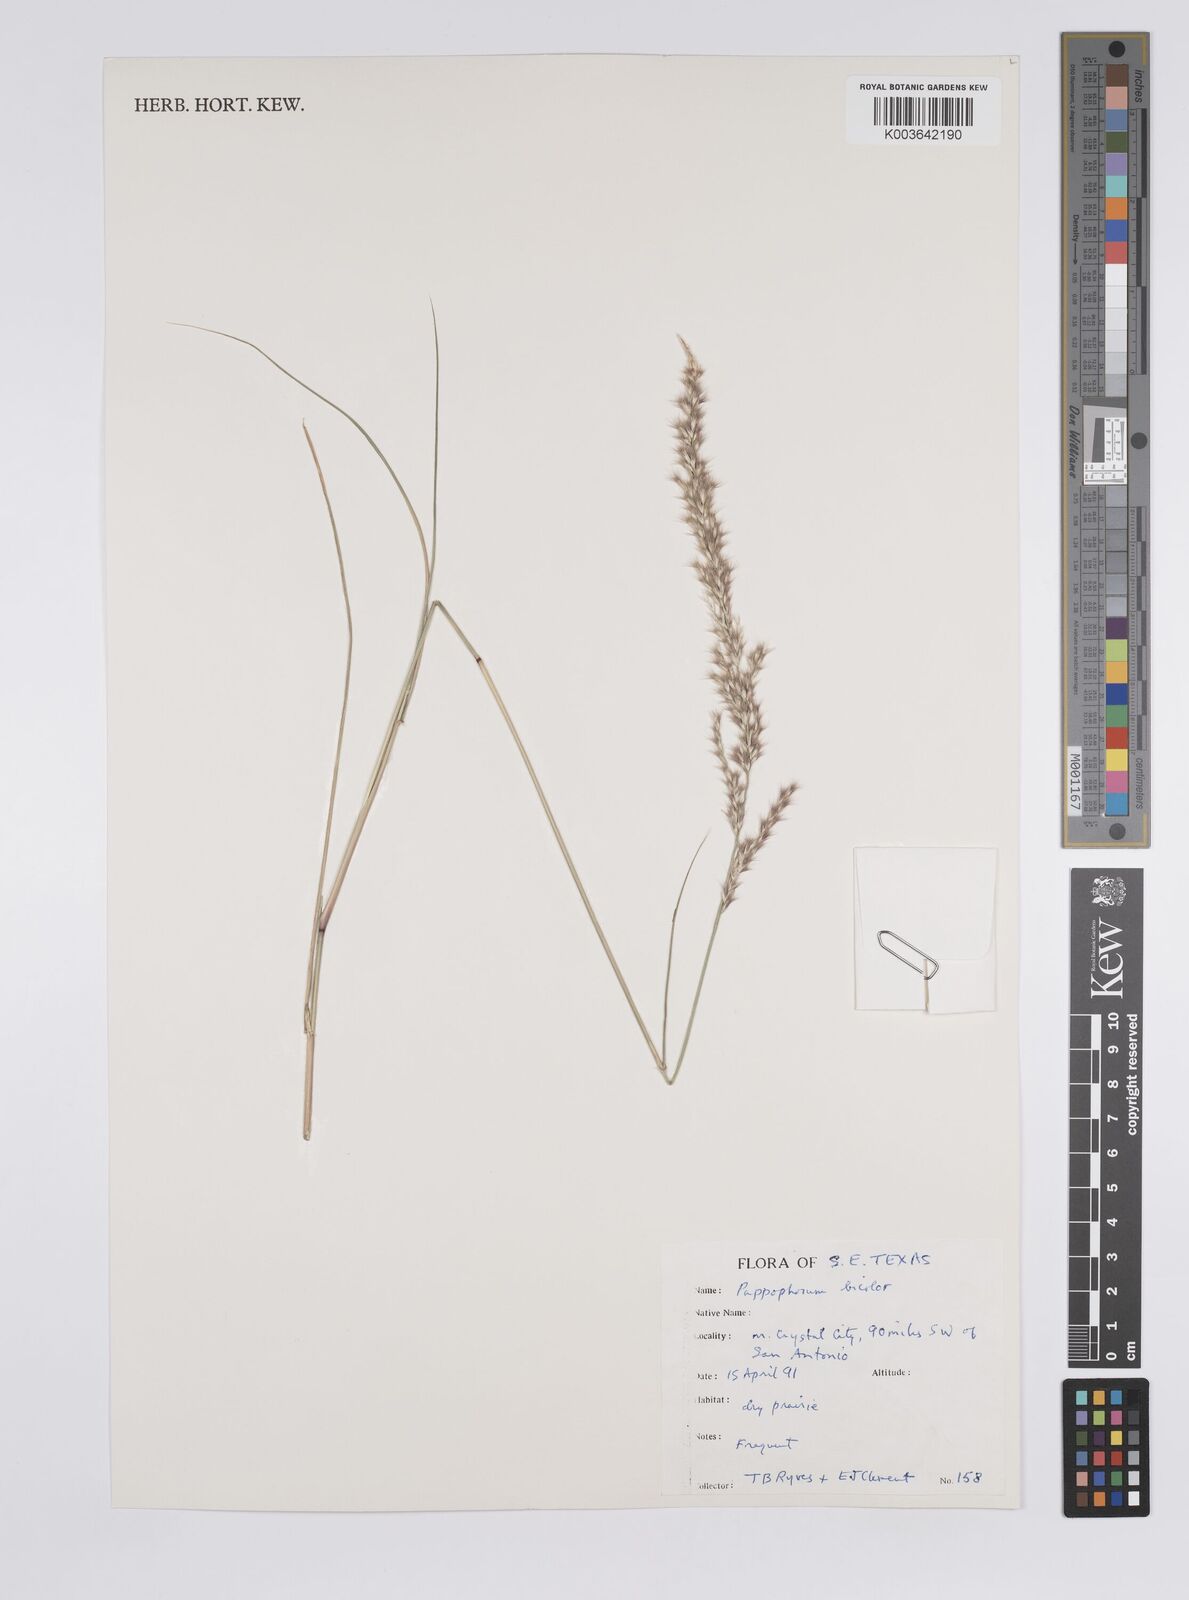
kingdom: Plantae
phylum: Tracheophyta
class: Liliopsida
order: Poales
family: Poaceae
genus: Pappophorum
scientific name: Pappophorum bicolor
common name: Pink pappus grass
